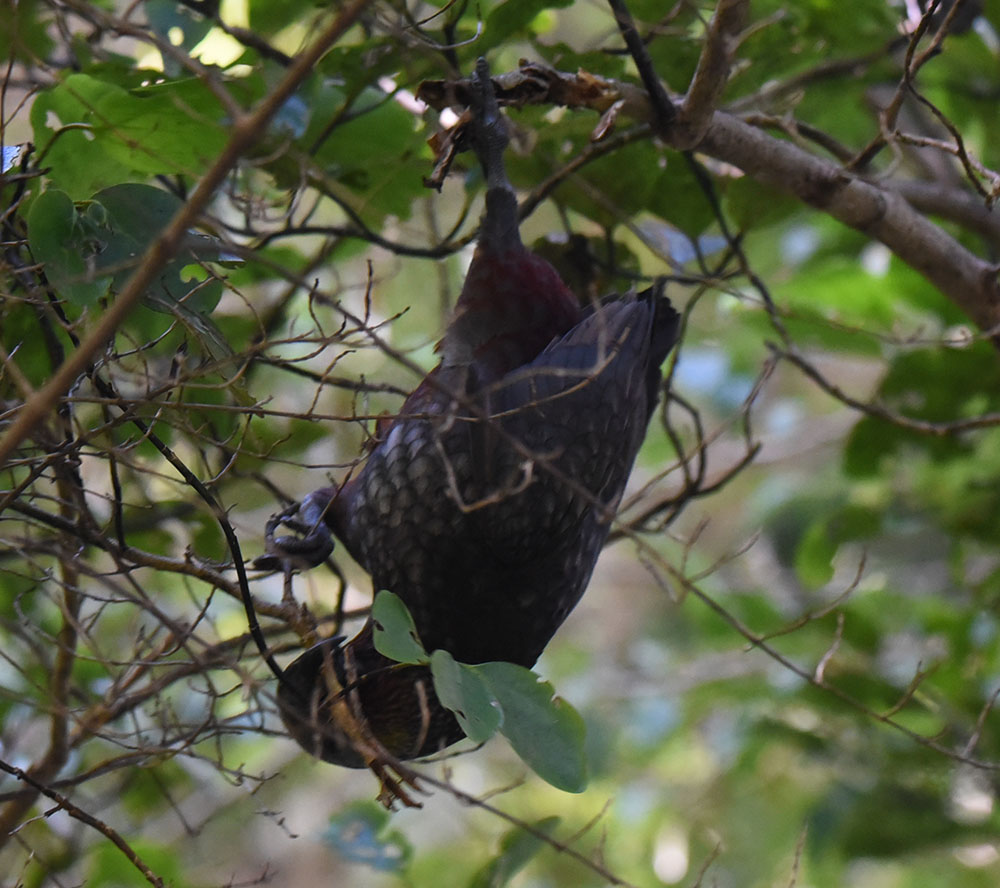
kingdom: Animalia
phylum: Chordata
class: Aves
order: Psittaciformes
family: Psittacidae
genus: Nestor
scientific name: Nestor meridionalis
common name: New zealand kaka
